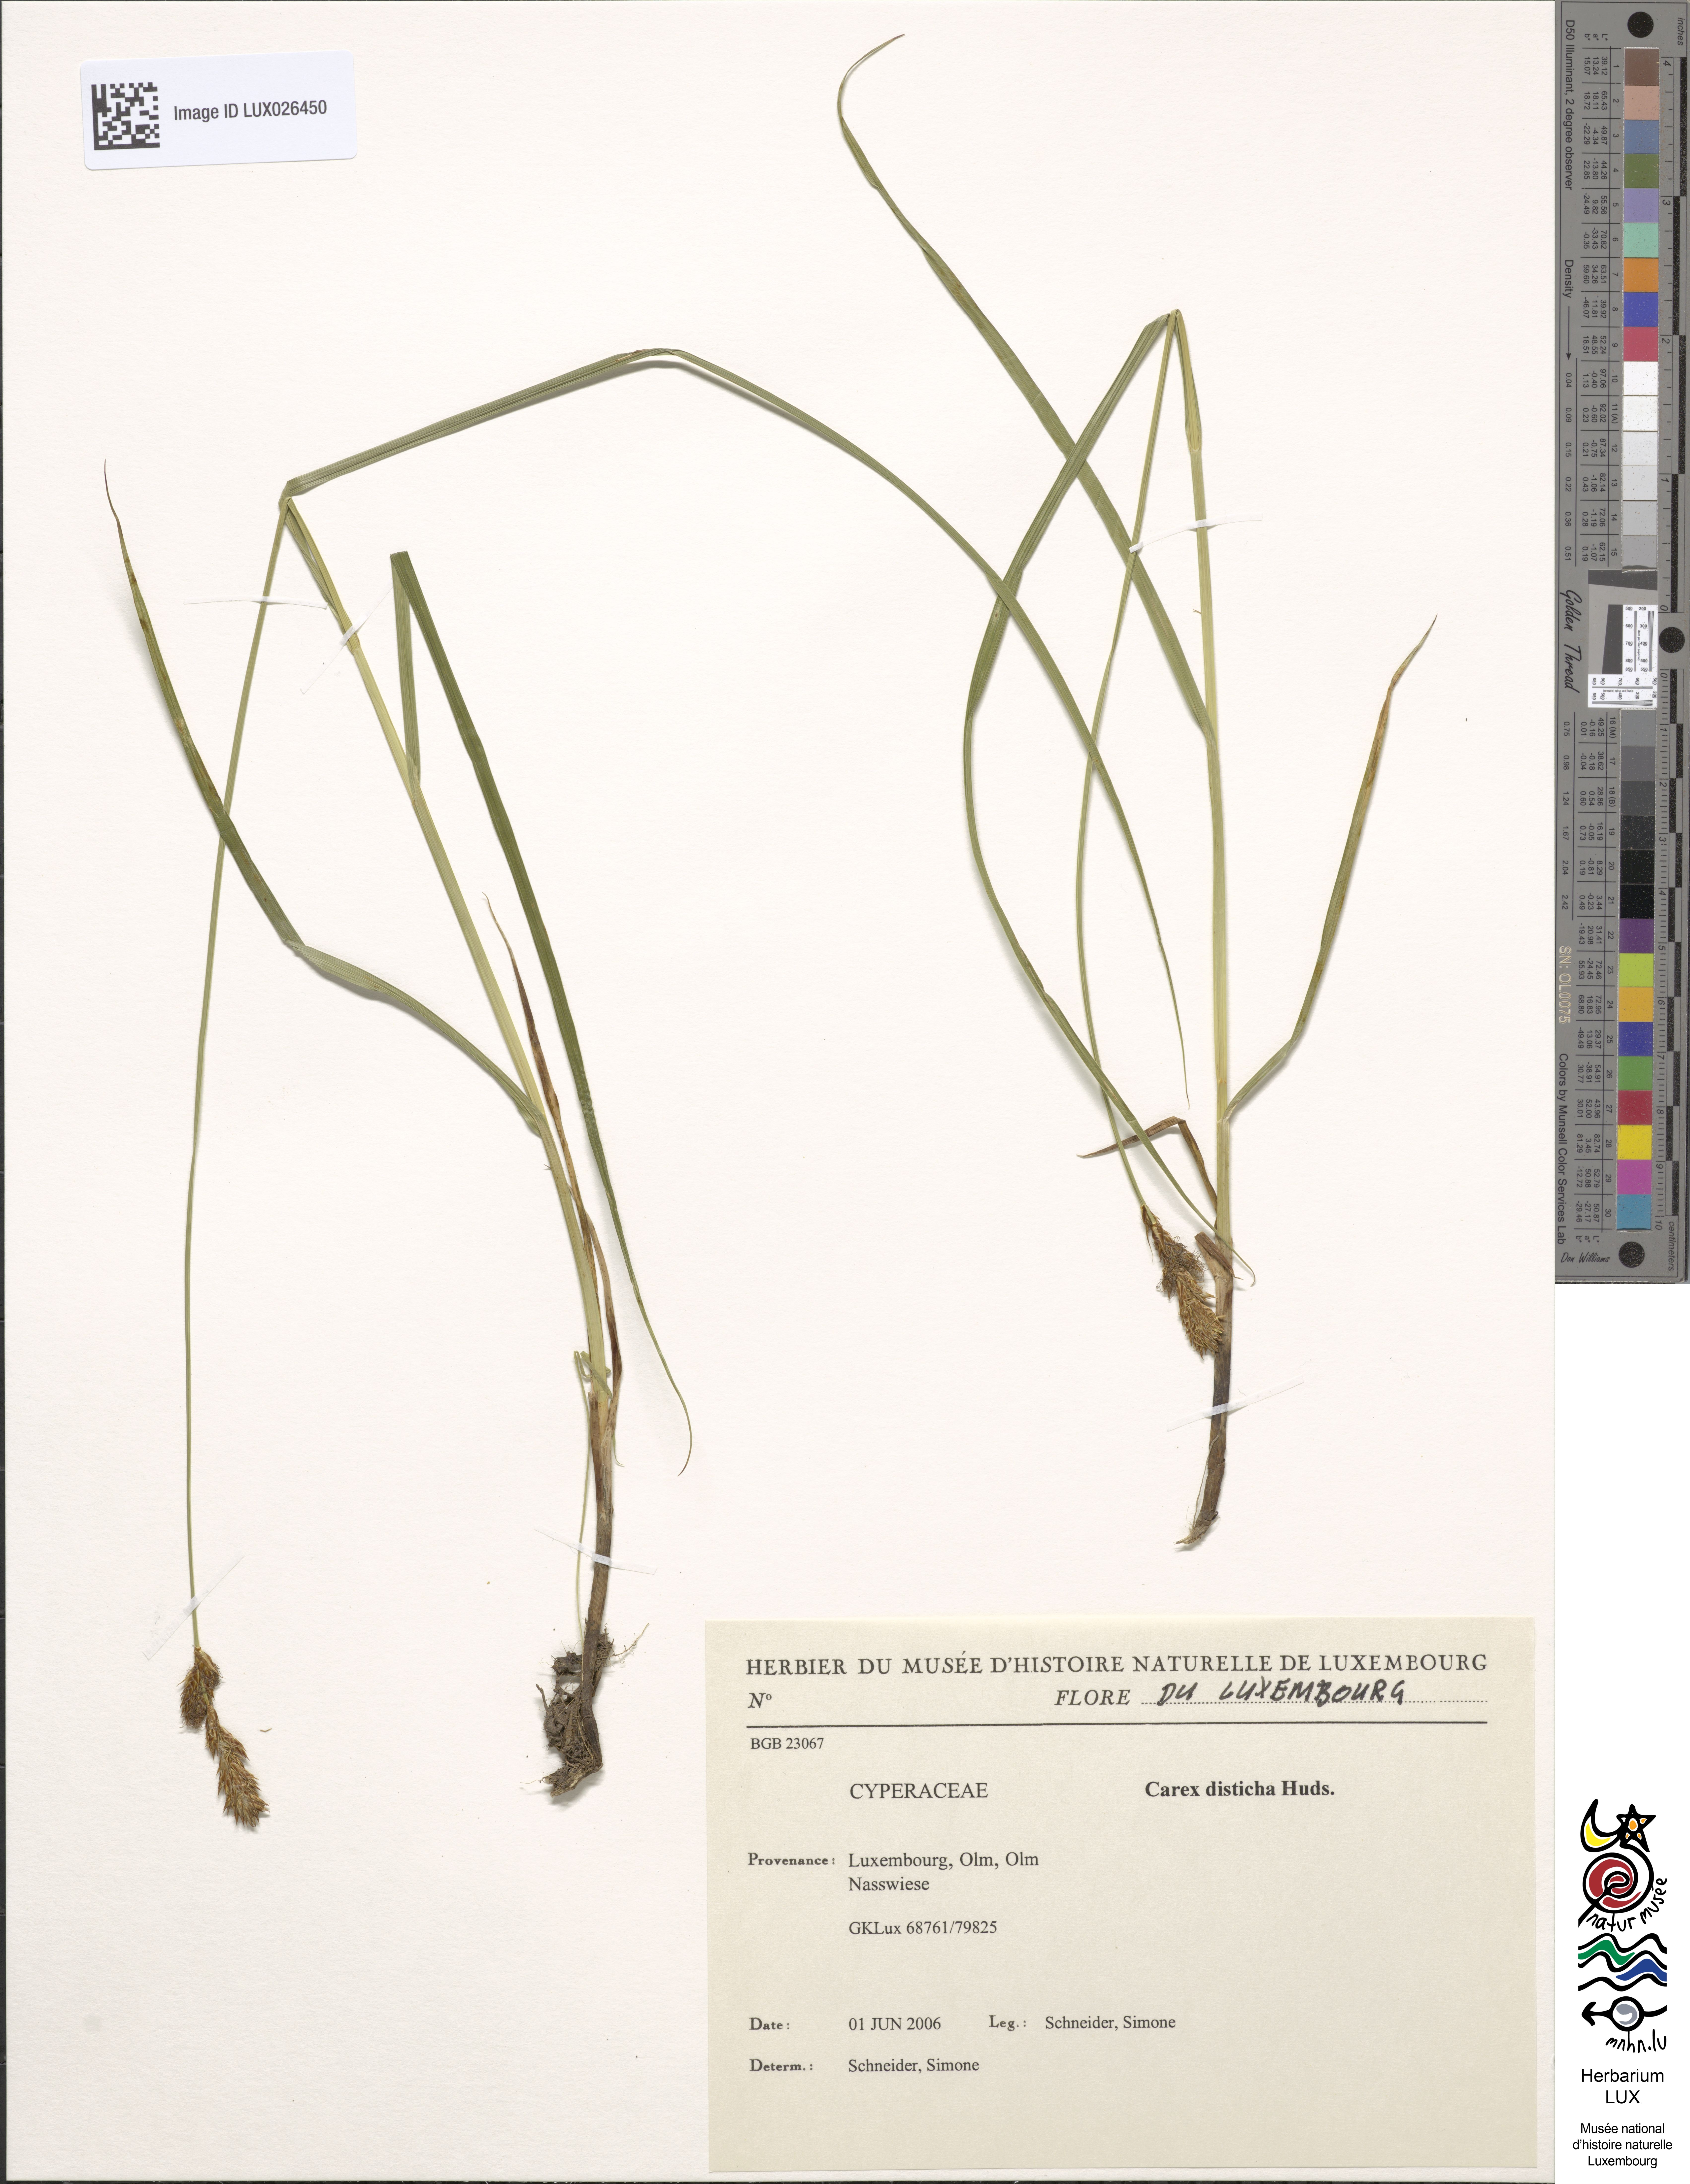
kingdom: Plantae
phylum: Tracheophyta
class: Liliopsida
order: Poales
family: Cyperaceae
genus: Carex
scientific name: Carex disticha
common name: Brown sedge
